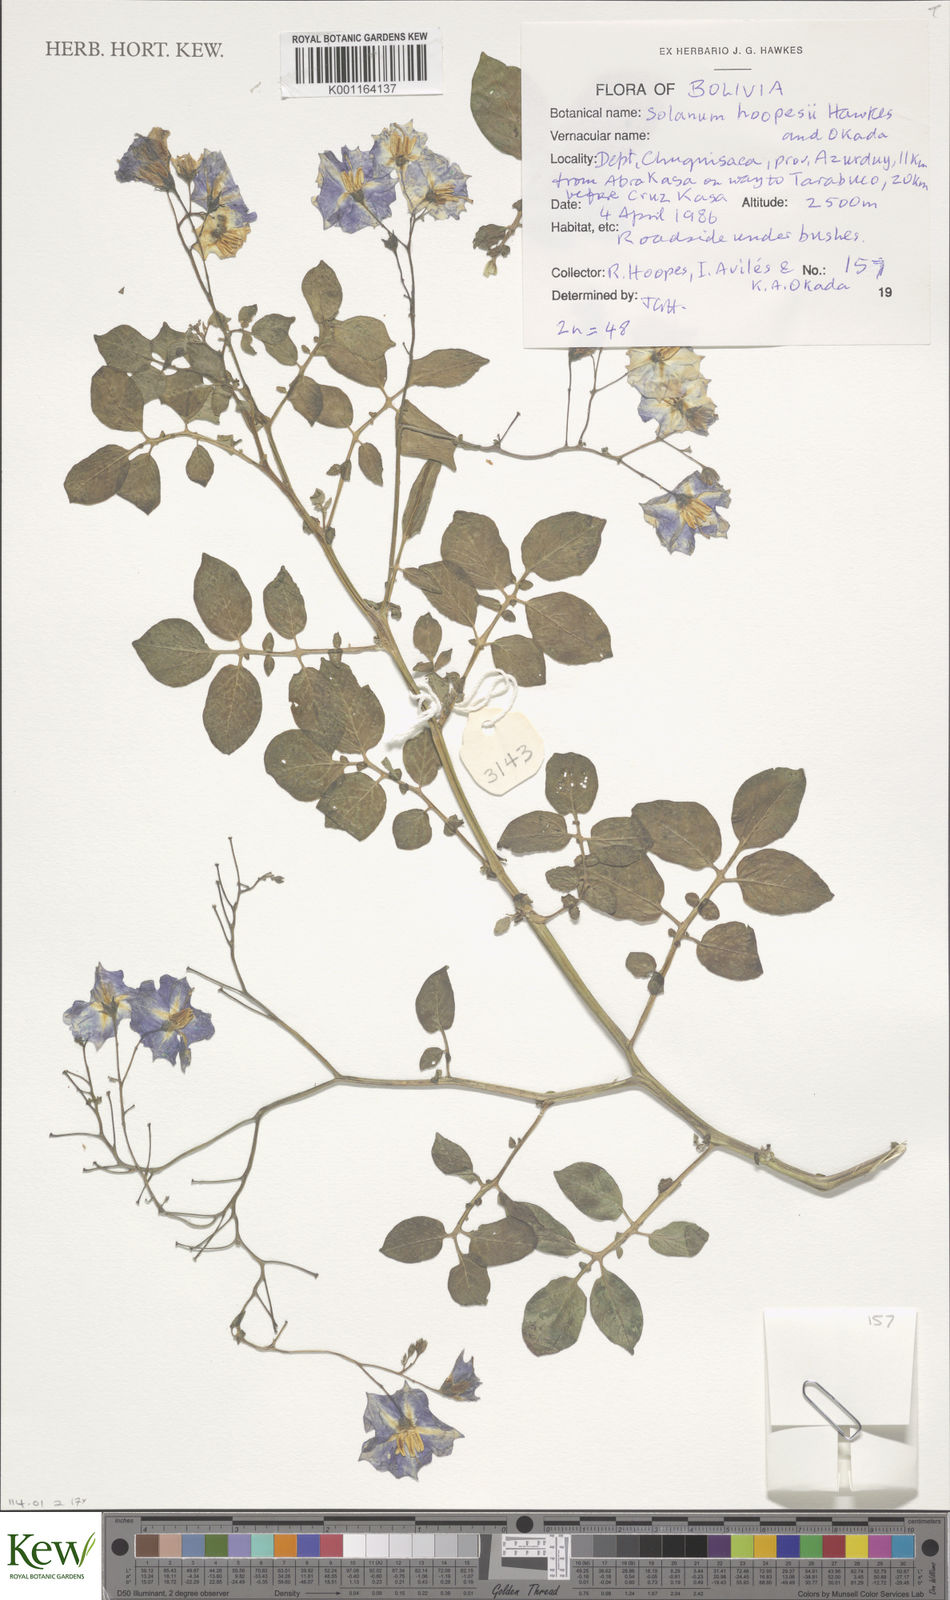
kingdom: Plantae
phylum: Tracheophyta
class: Magnoliopsida
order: Solanales
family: Solanaceae
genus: Solanum
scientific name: Solanum brevicaule
